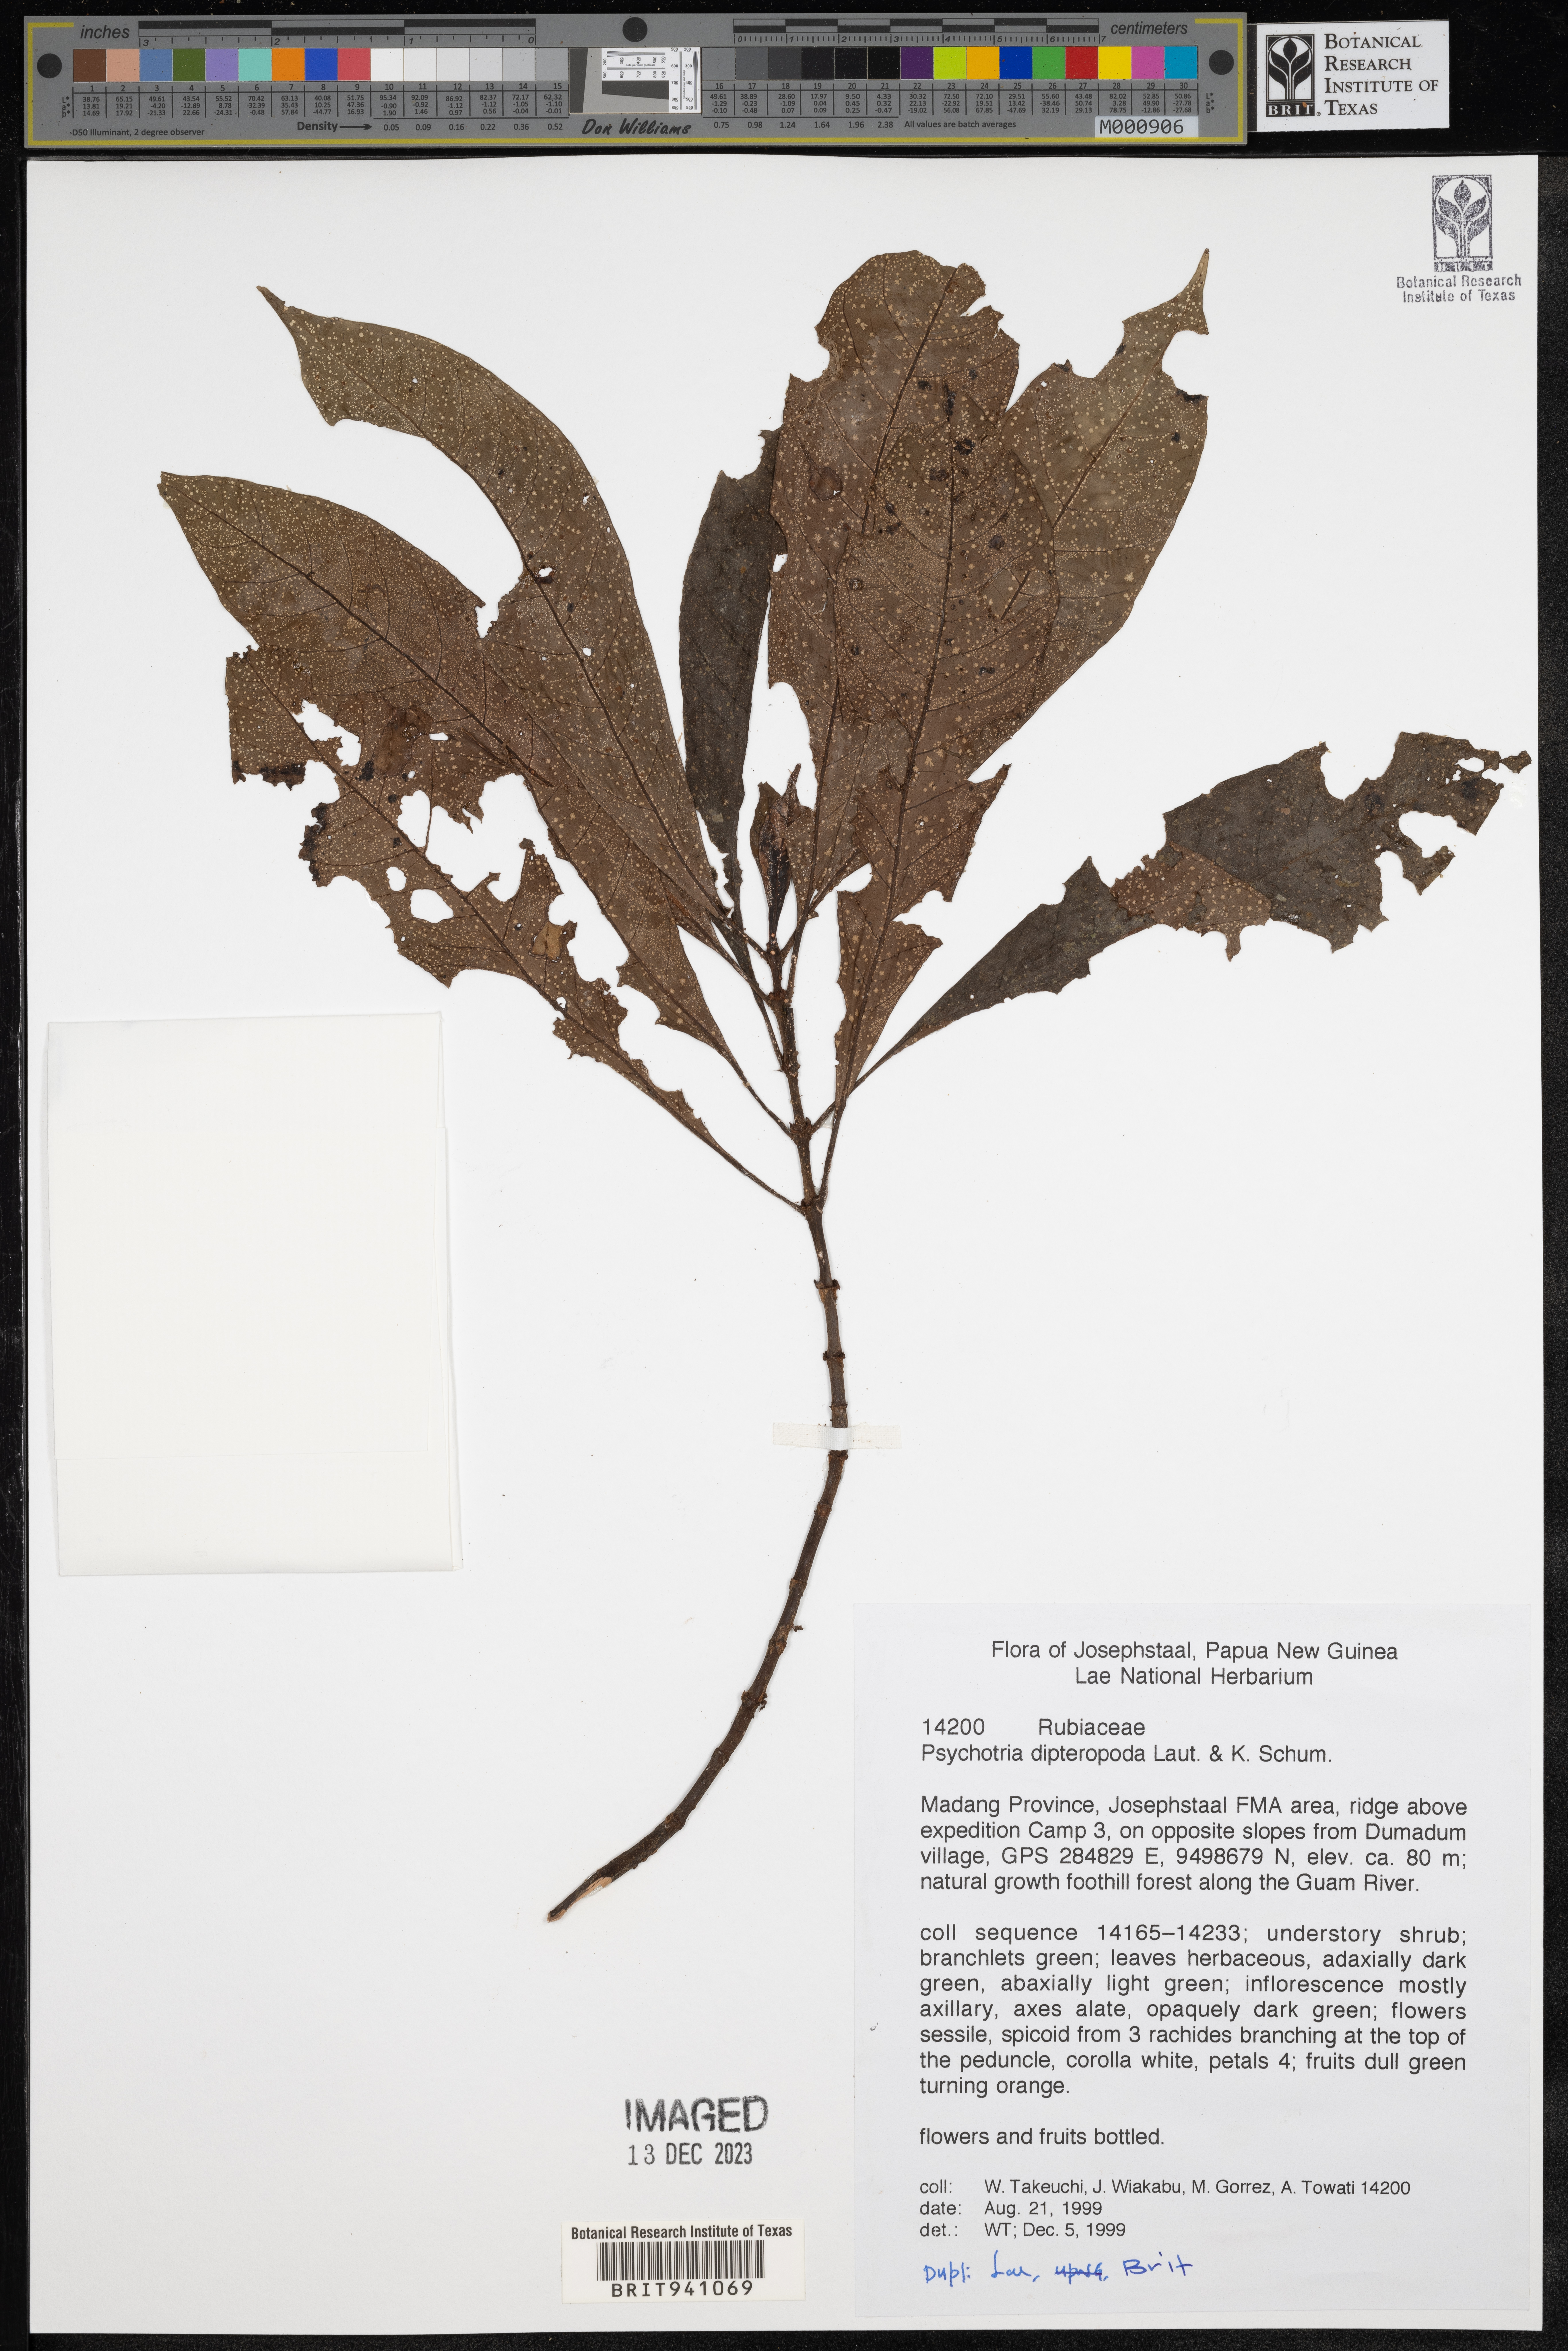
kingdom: Plantae
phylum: Tracheophyta
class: Magnoliopsida
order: Gentianales
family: Rubiaceae
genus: Psychotria
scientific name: Psychotria
